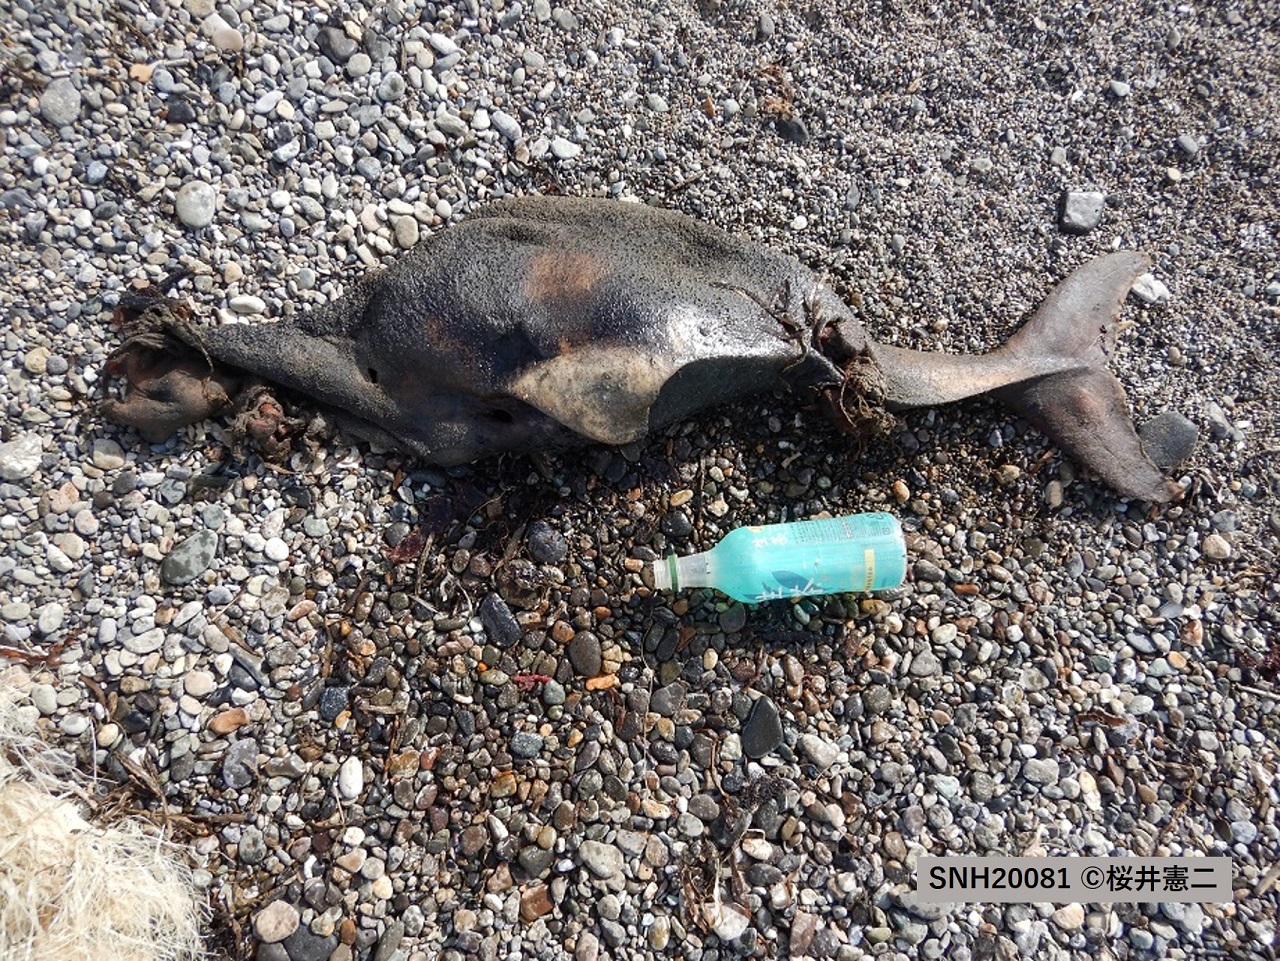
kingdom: Animalia
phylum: Chordata
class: Mammalia
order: Cetacea
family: Phocoenidae
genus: Phocoena
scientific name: Phocoena phocoena
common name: Harbour porpoise
